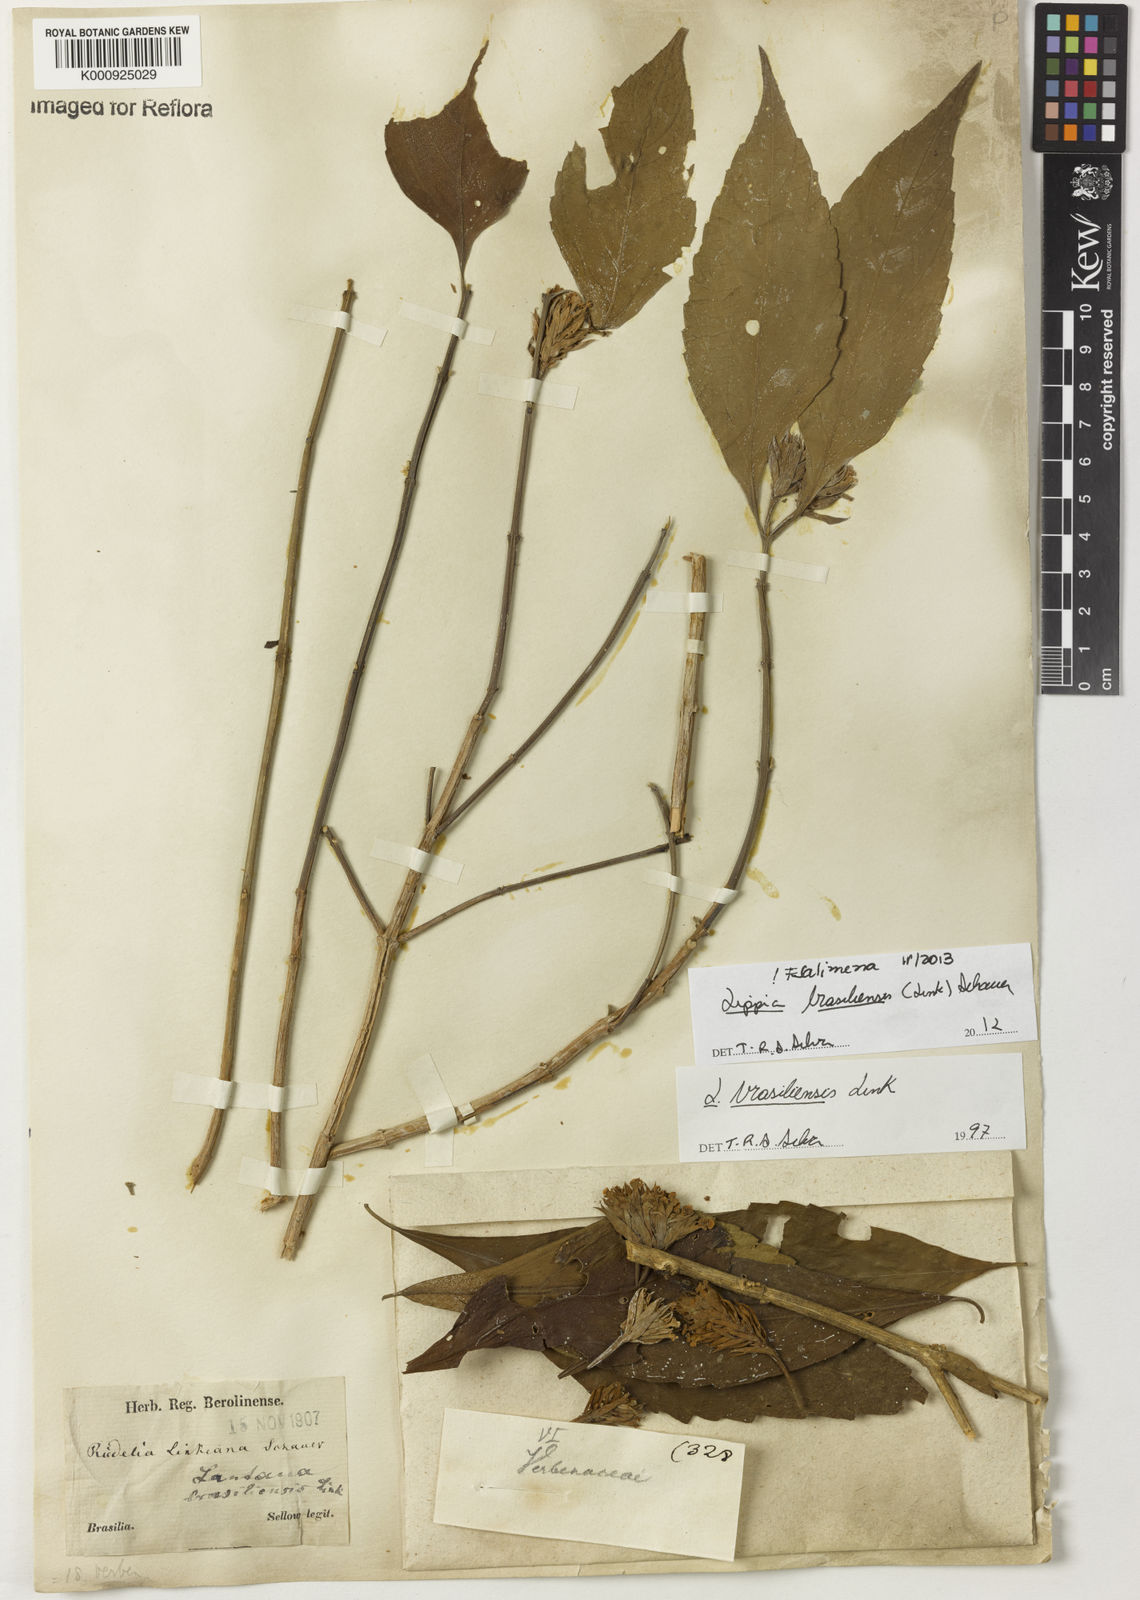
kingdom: Plantae
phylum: Tracheophyta
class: Magnoliopsida
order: Lamiales
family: Verbenaceae
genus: Lippia
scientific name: Lippia brasiliensis
